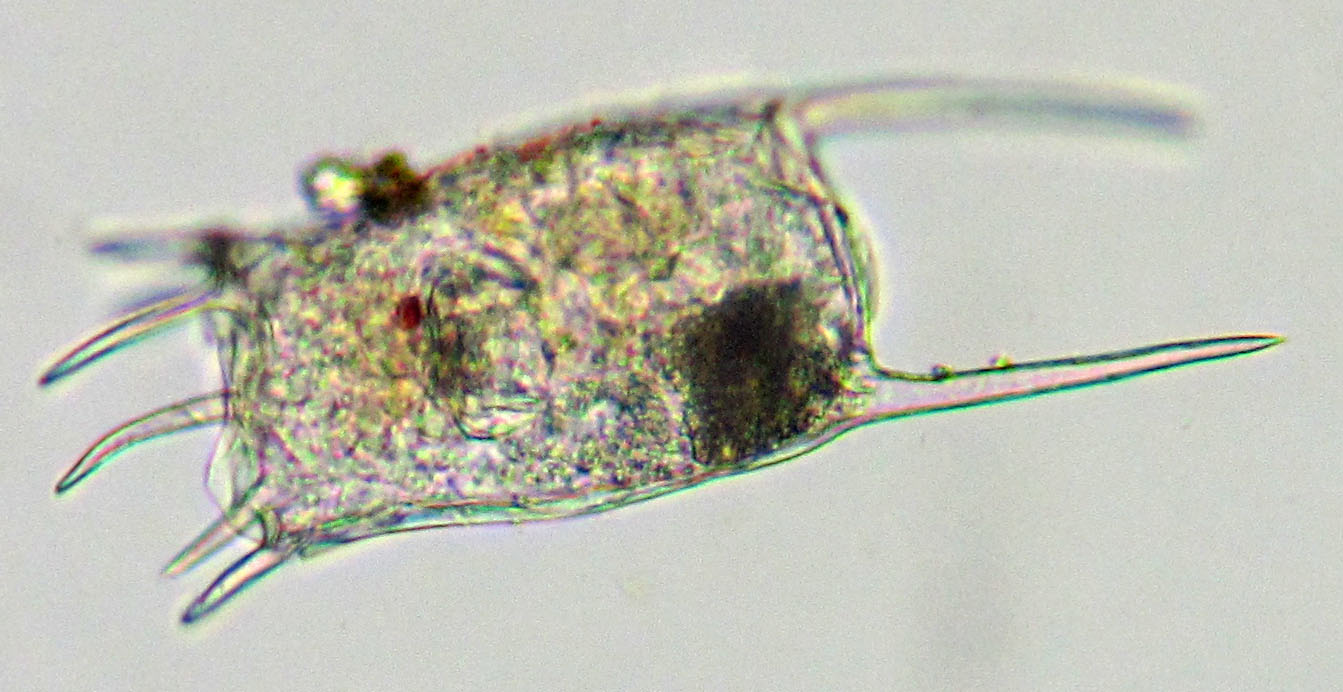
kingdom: Animalia
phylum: Rotifera
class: Eurotatoria
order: Ploima
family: Brachionidae
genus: Keratella
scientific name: Keratella quadrata
